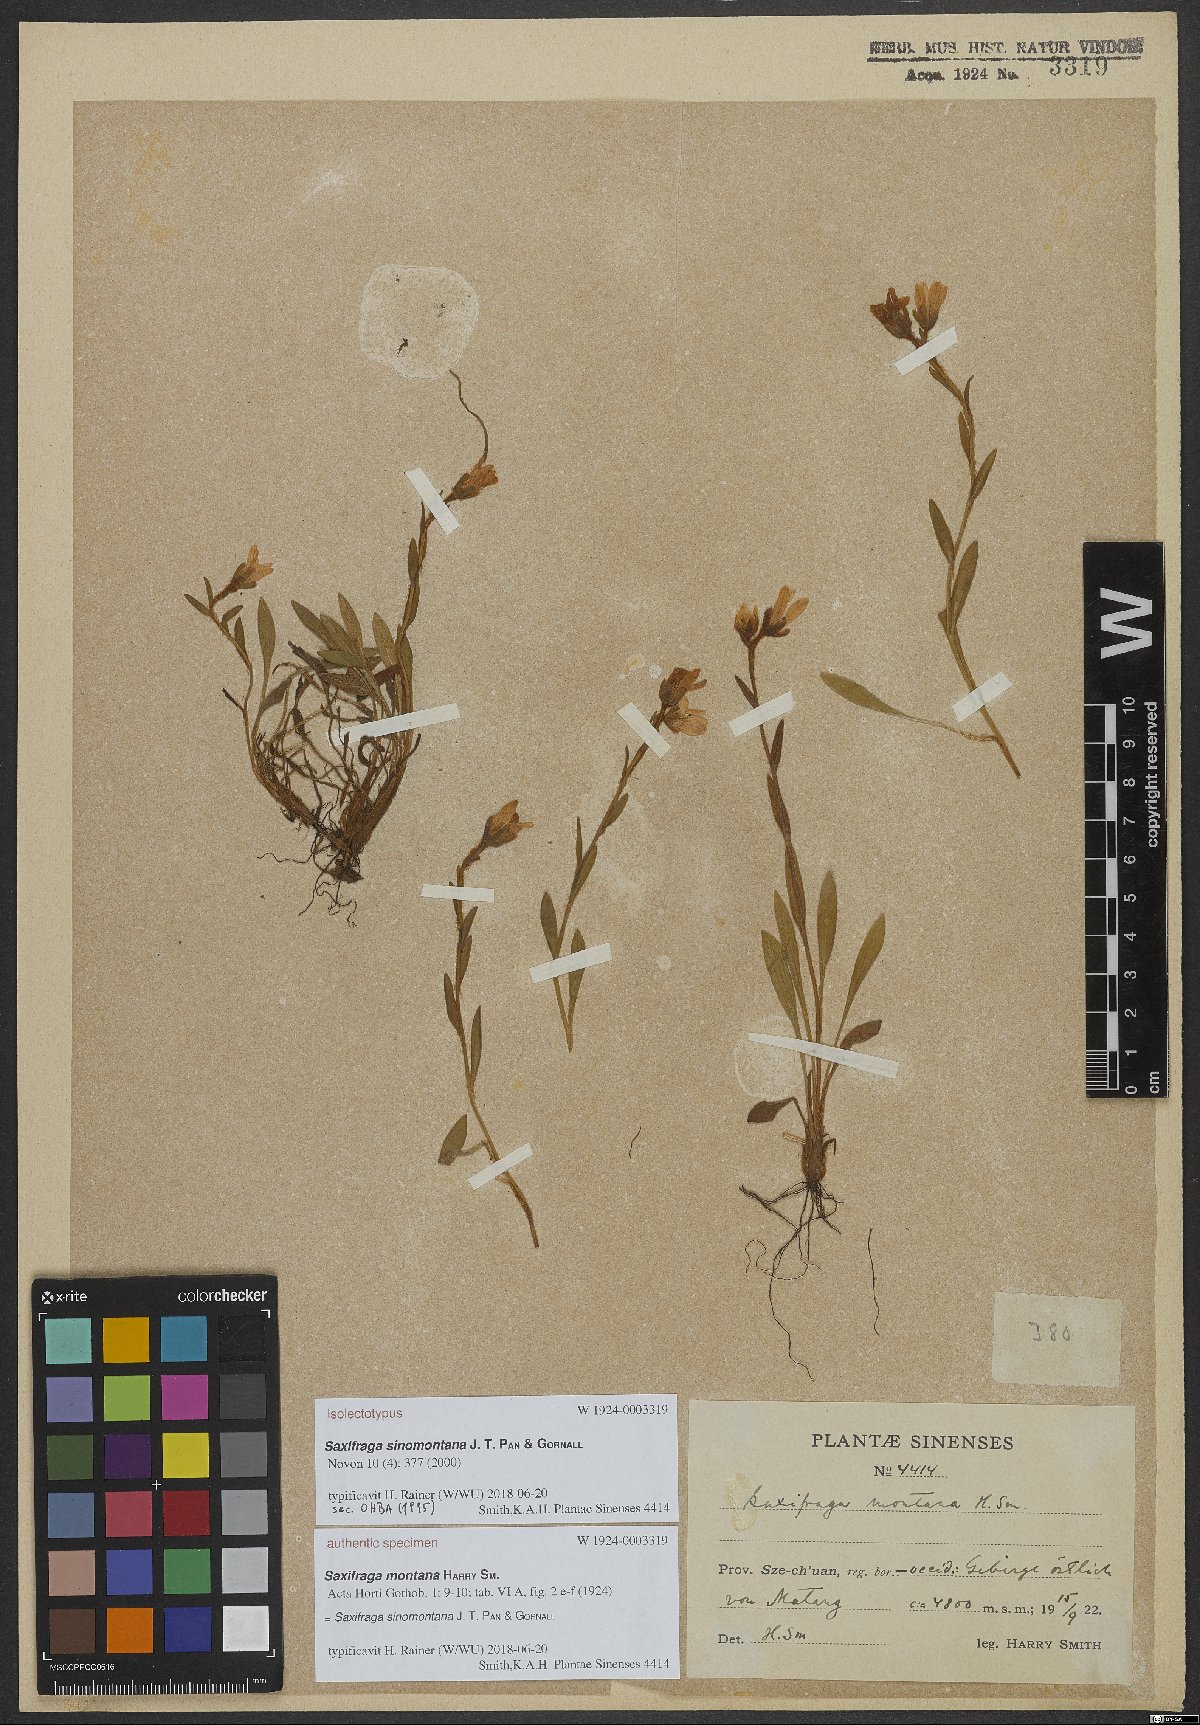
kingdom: Plantae
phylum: Tracheophyta
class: Magnoliopsida
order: Saxifragales
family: Saxifragaceae
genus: Saxifraga
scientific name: Saxifraga sinomontana
